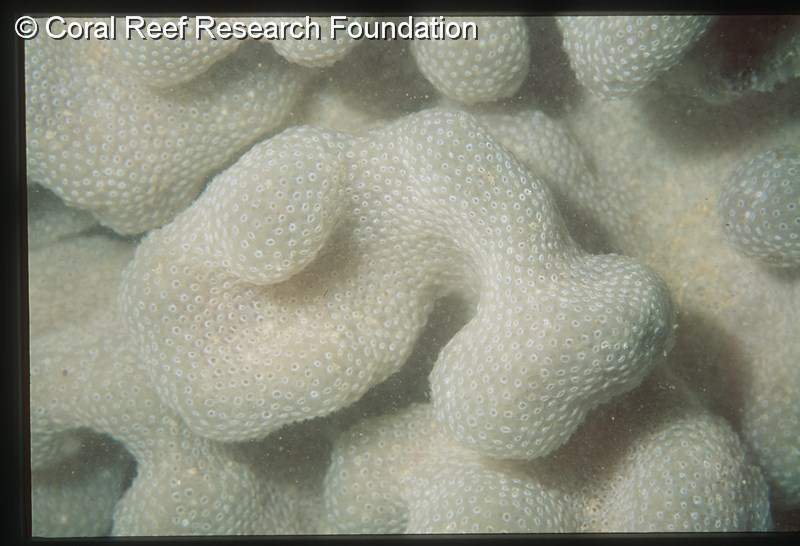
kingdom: Animalia
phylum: Chordata
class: Ascidiacea
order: Aplousobranchia
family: Pseudodistomidae
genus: Pseudodistoma
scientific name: Pseudodistoma
